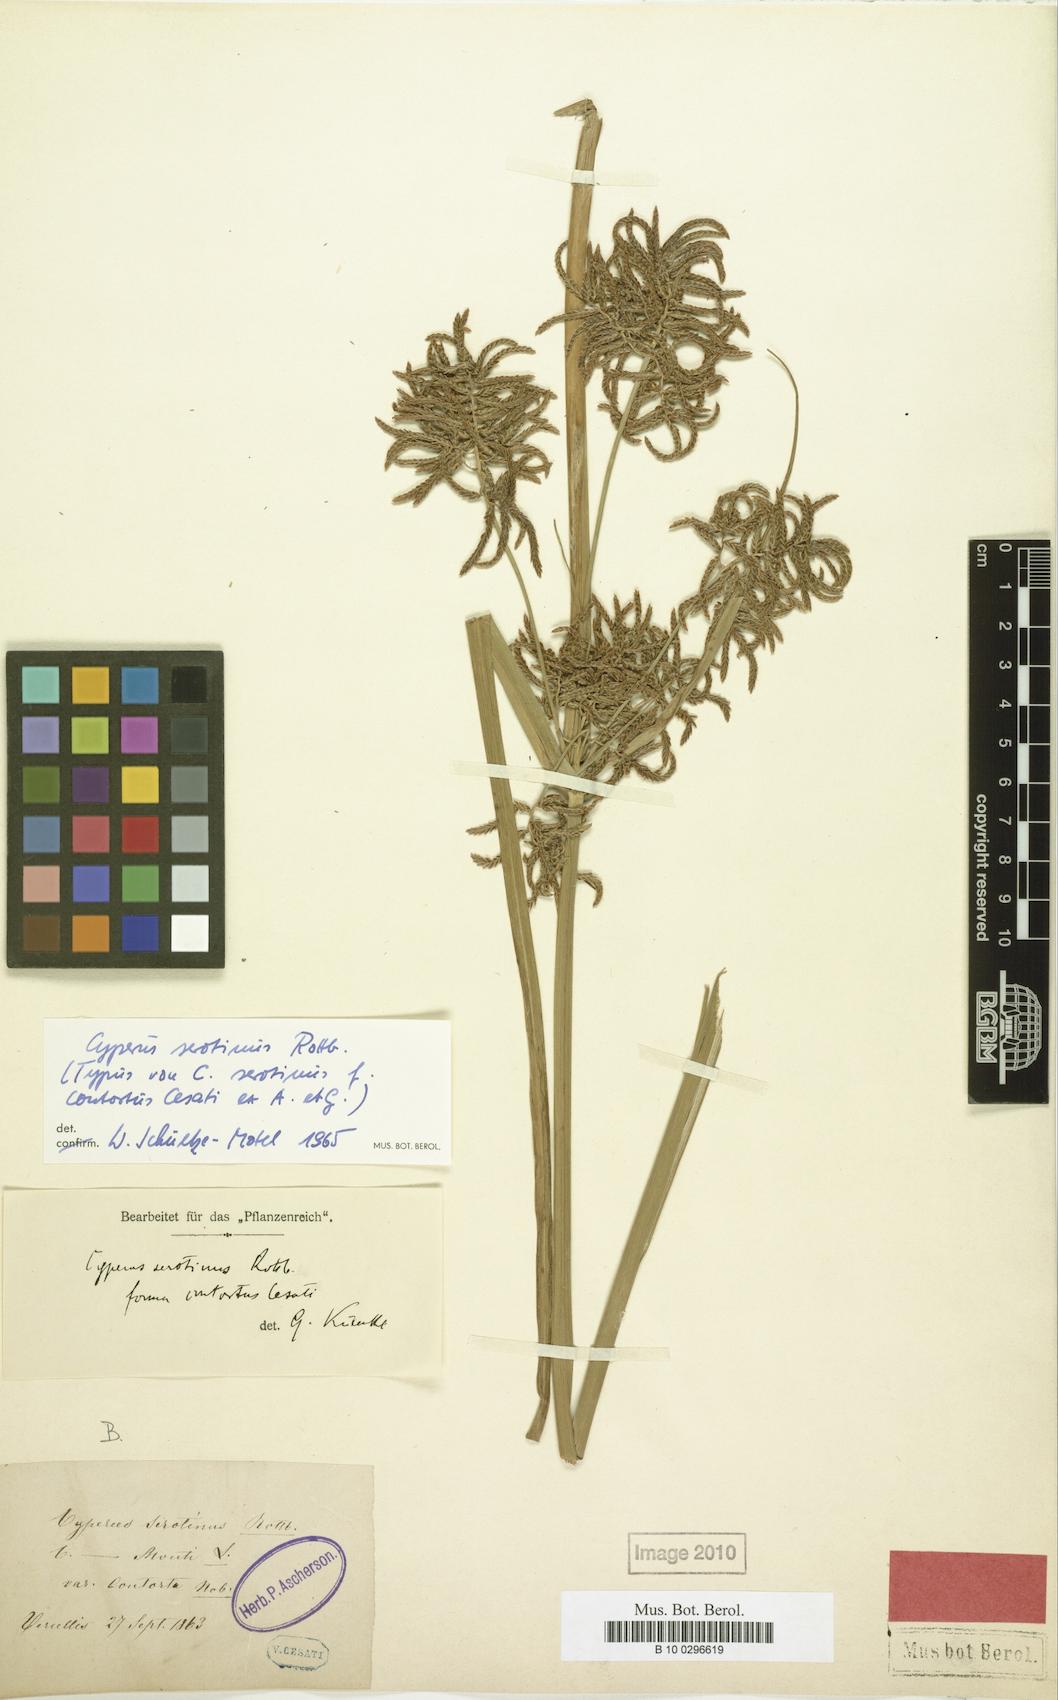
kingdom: Plantae
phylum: Tracheophyta
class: Liliopsida
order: Poales
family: Cyperaceae
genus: Cyperus
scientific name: Cyperus serotinus
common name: Tidalmarsh flatsedge
